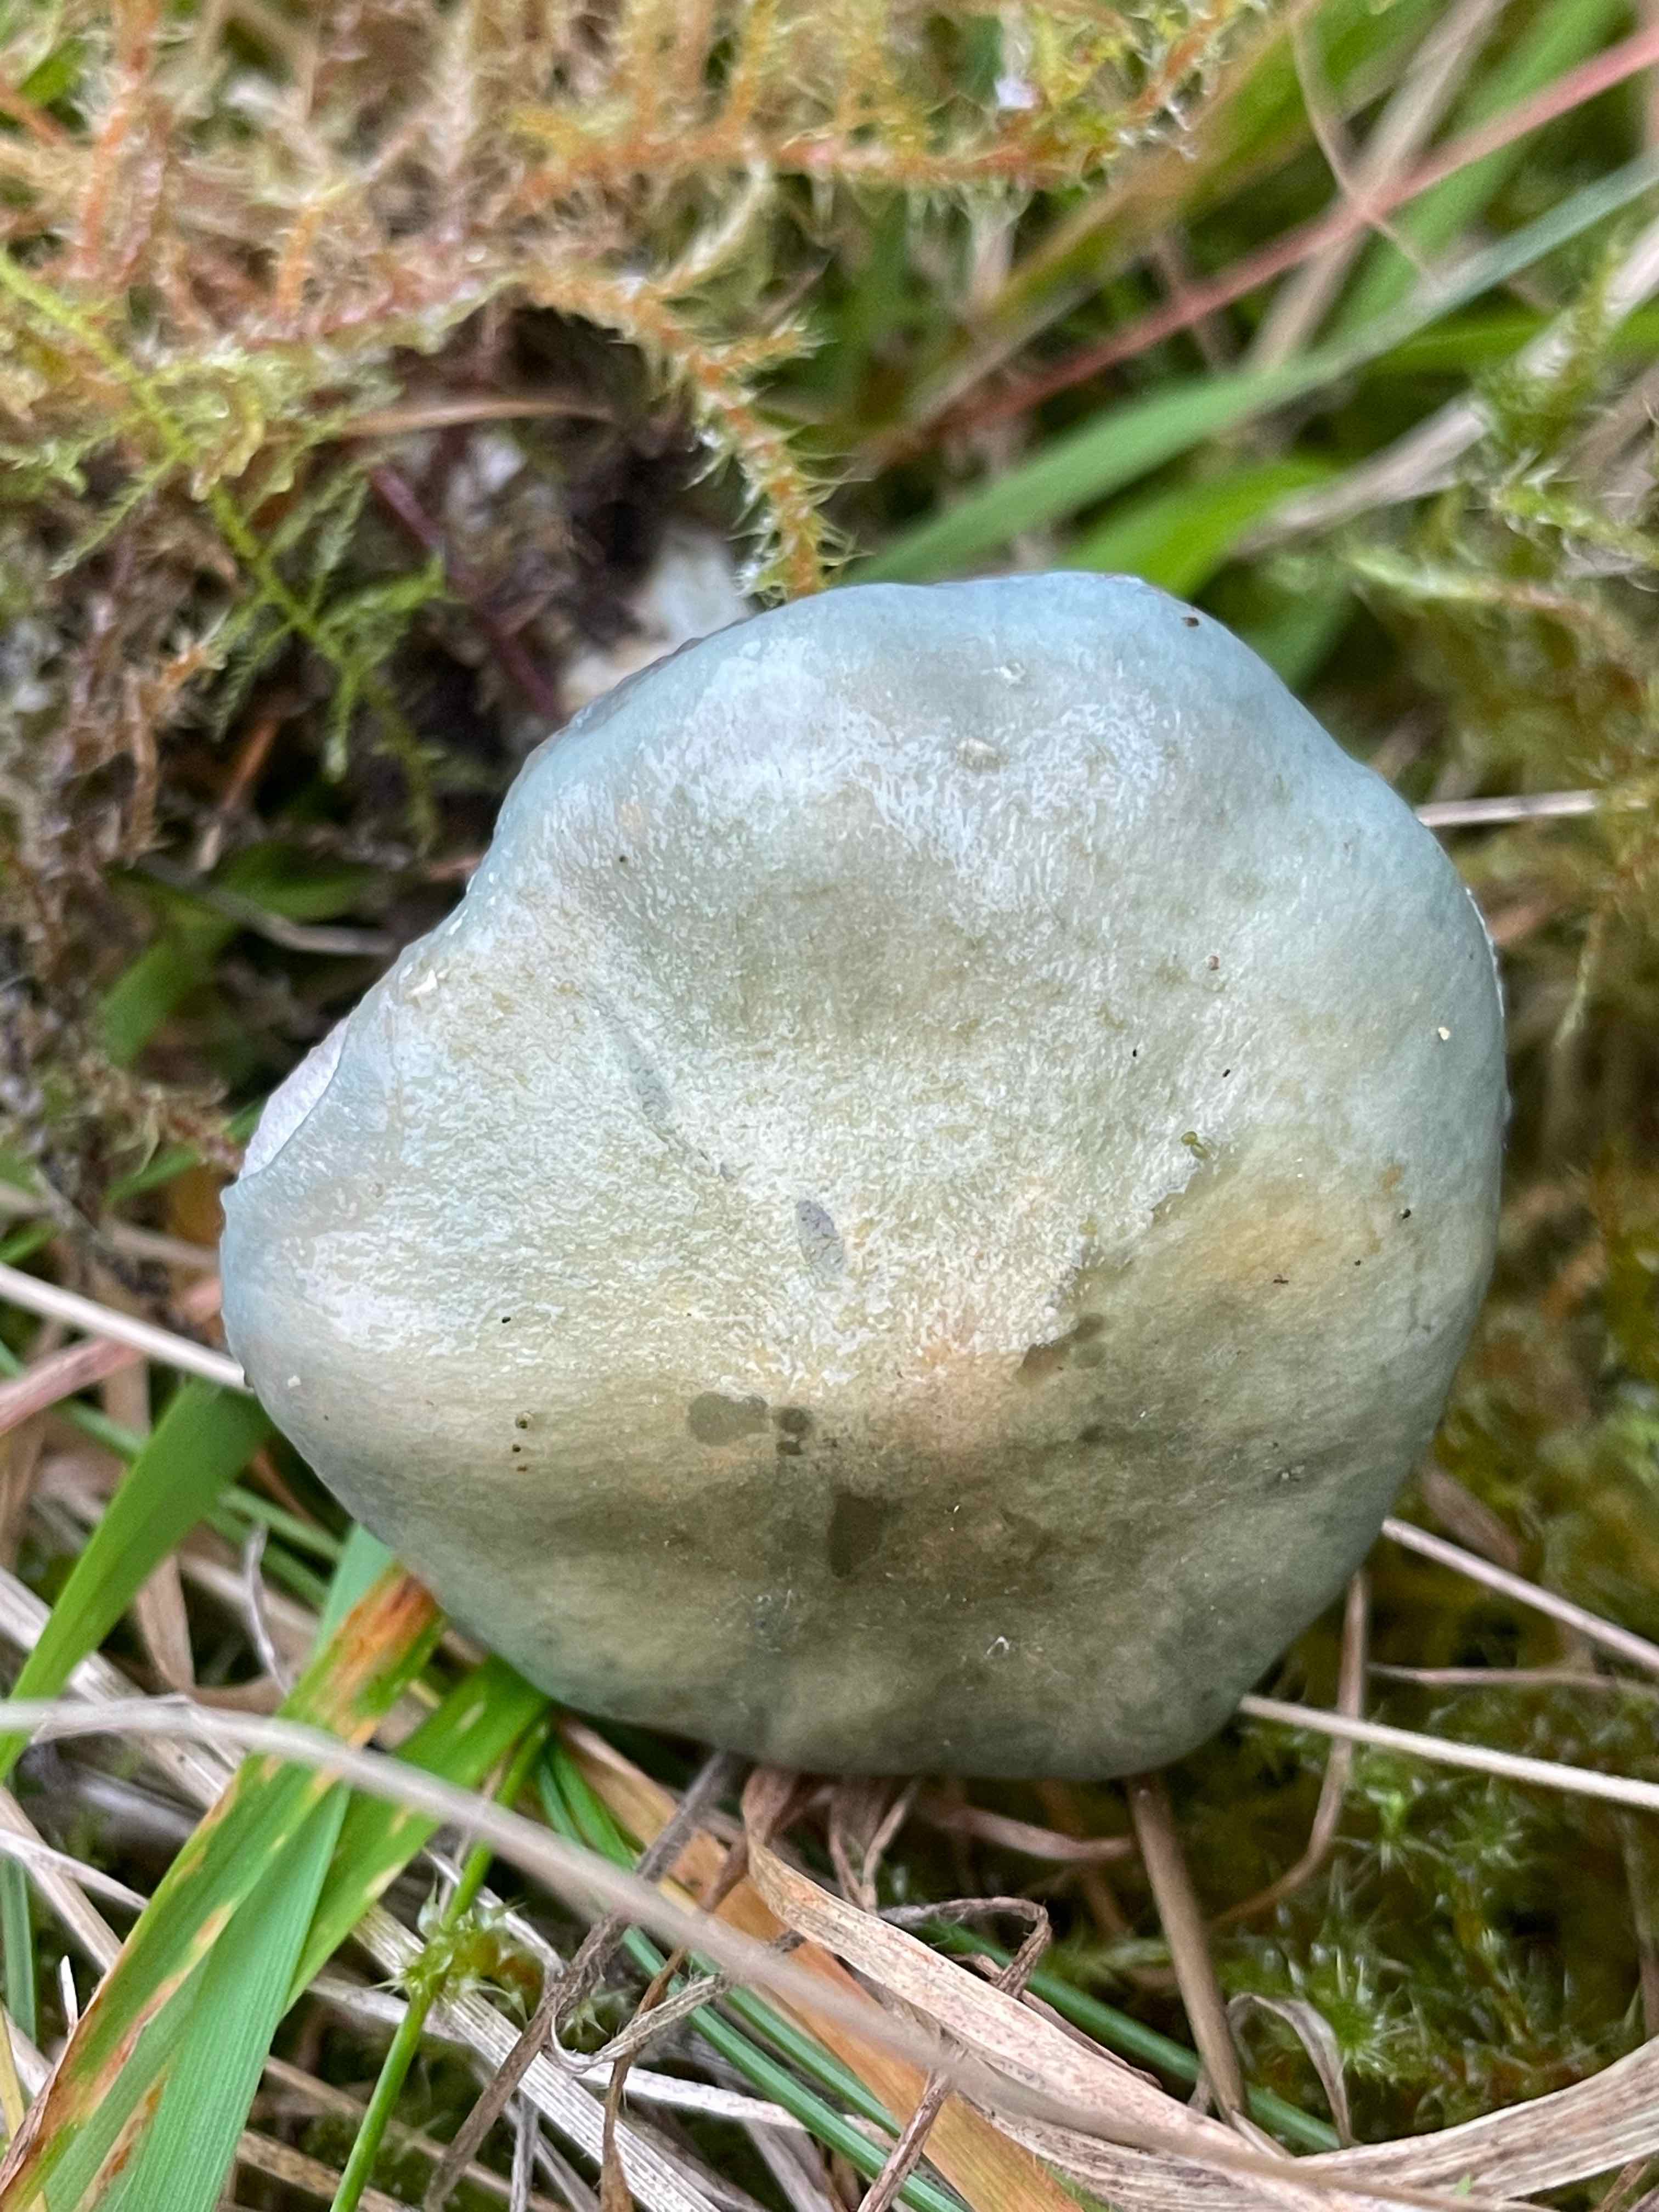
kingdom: Fungi
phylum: Basidiomycota
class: Agaricomycetes
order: Agaricales
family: Strophariaceae
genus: Stropharia
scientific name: Stropharia cyanea
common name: blågrøn bredblad
